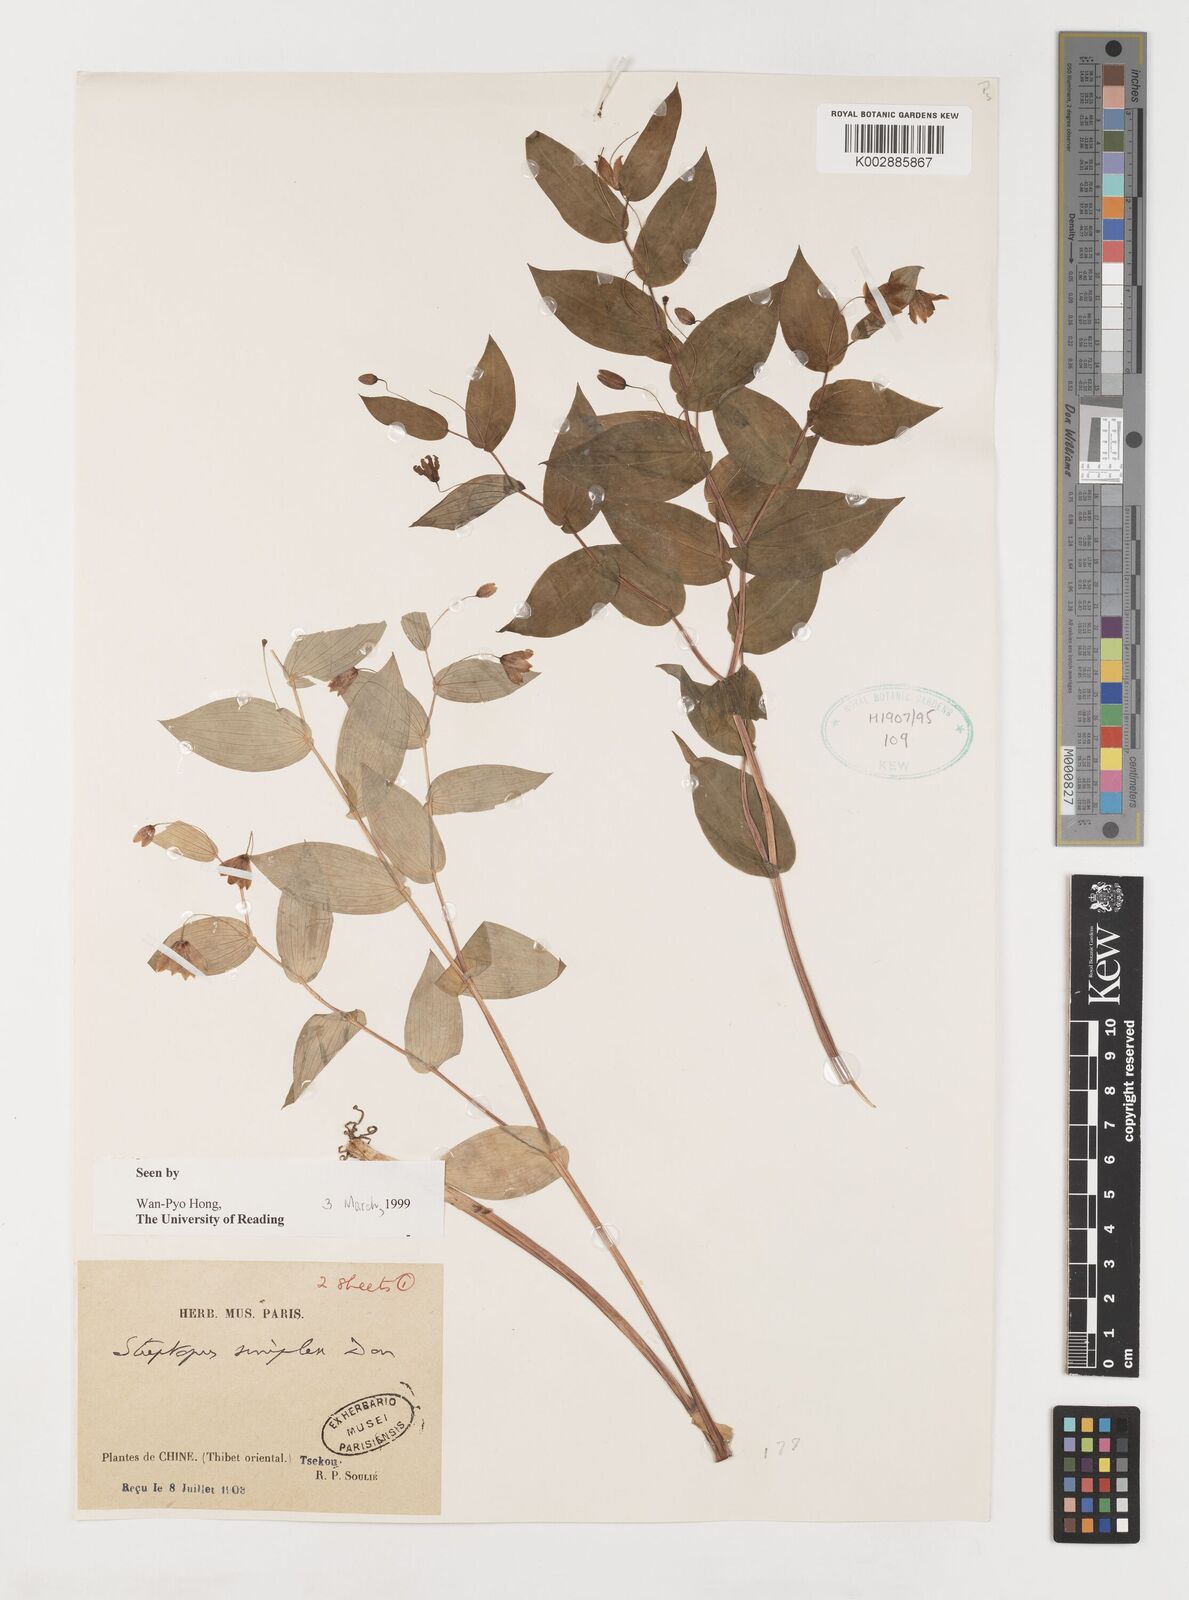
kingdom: Plantae
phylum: Tracheophyta
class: Liliopsida
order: Liliales
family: Liliaceae
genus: Streptopus
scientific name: Streptopus simplex
